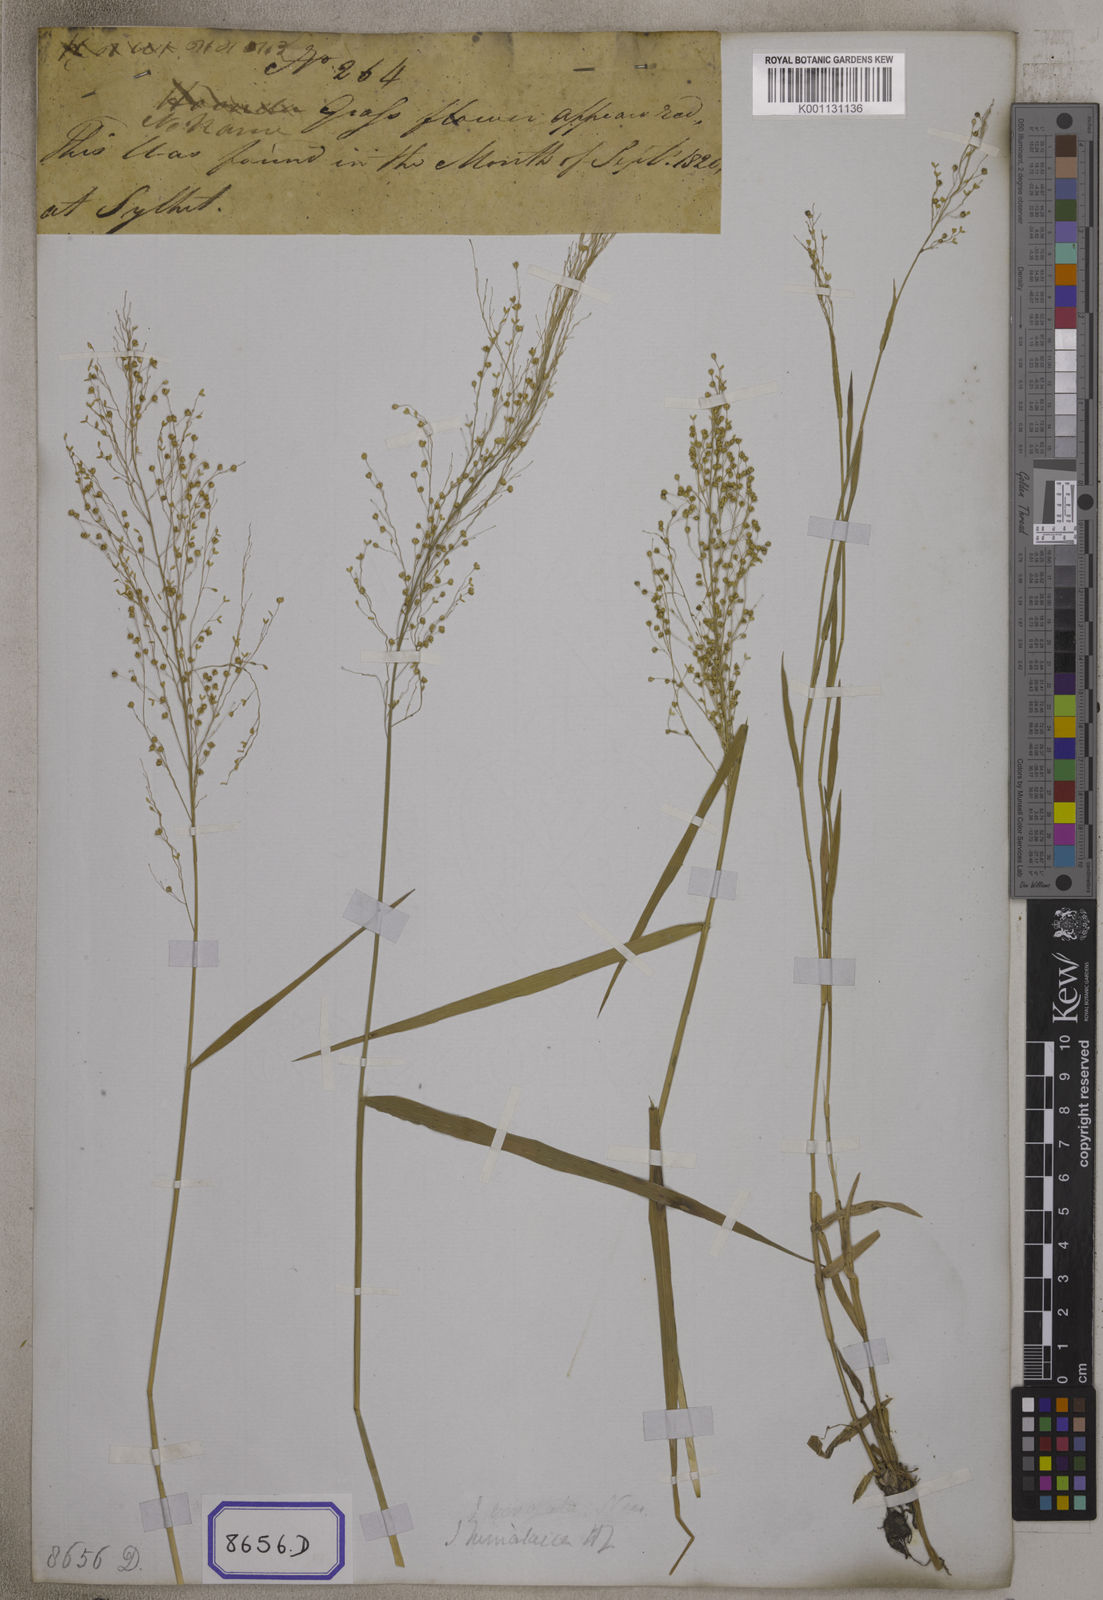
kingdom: Plantae
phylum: Tracheophyta
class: Liliopsida
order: Poales
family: Poaceae
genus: Isachne
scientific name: Isachne
